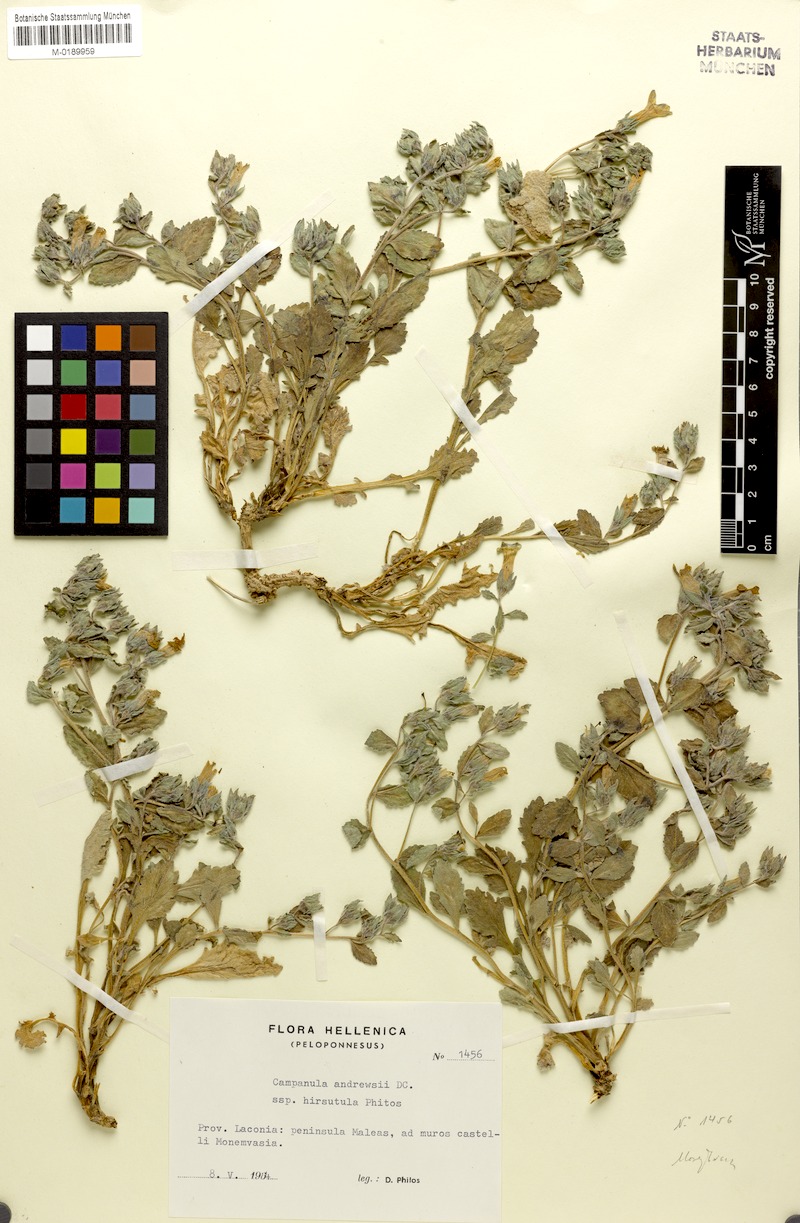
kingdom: Plantae
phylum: Tracheophyta
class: Magnoliopsida
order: Asterales
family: Campanulaceae
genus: Campanula
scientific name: Campanula andrewsii
